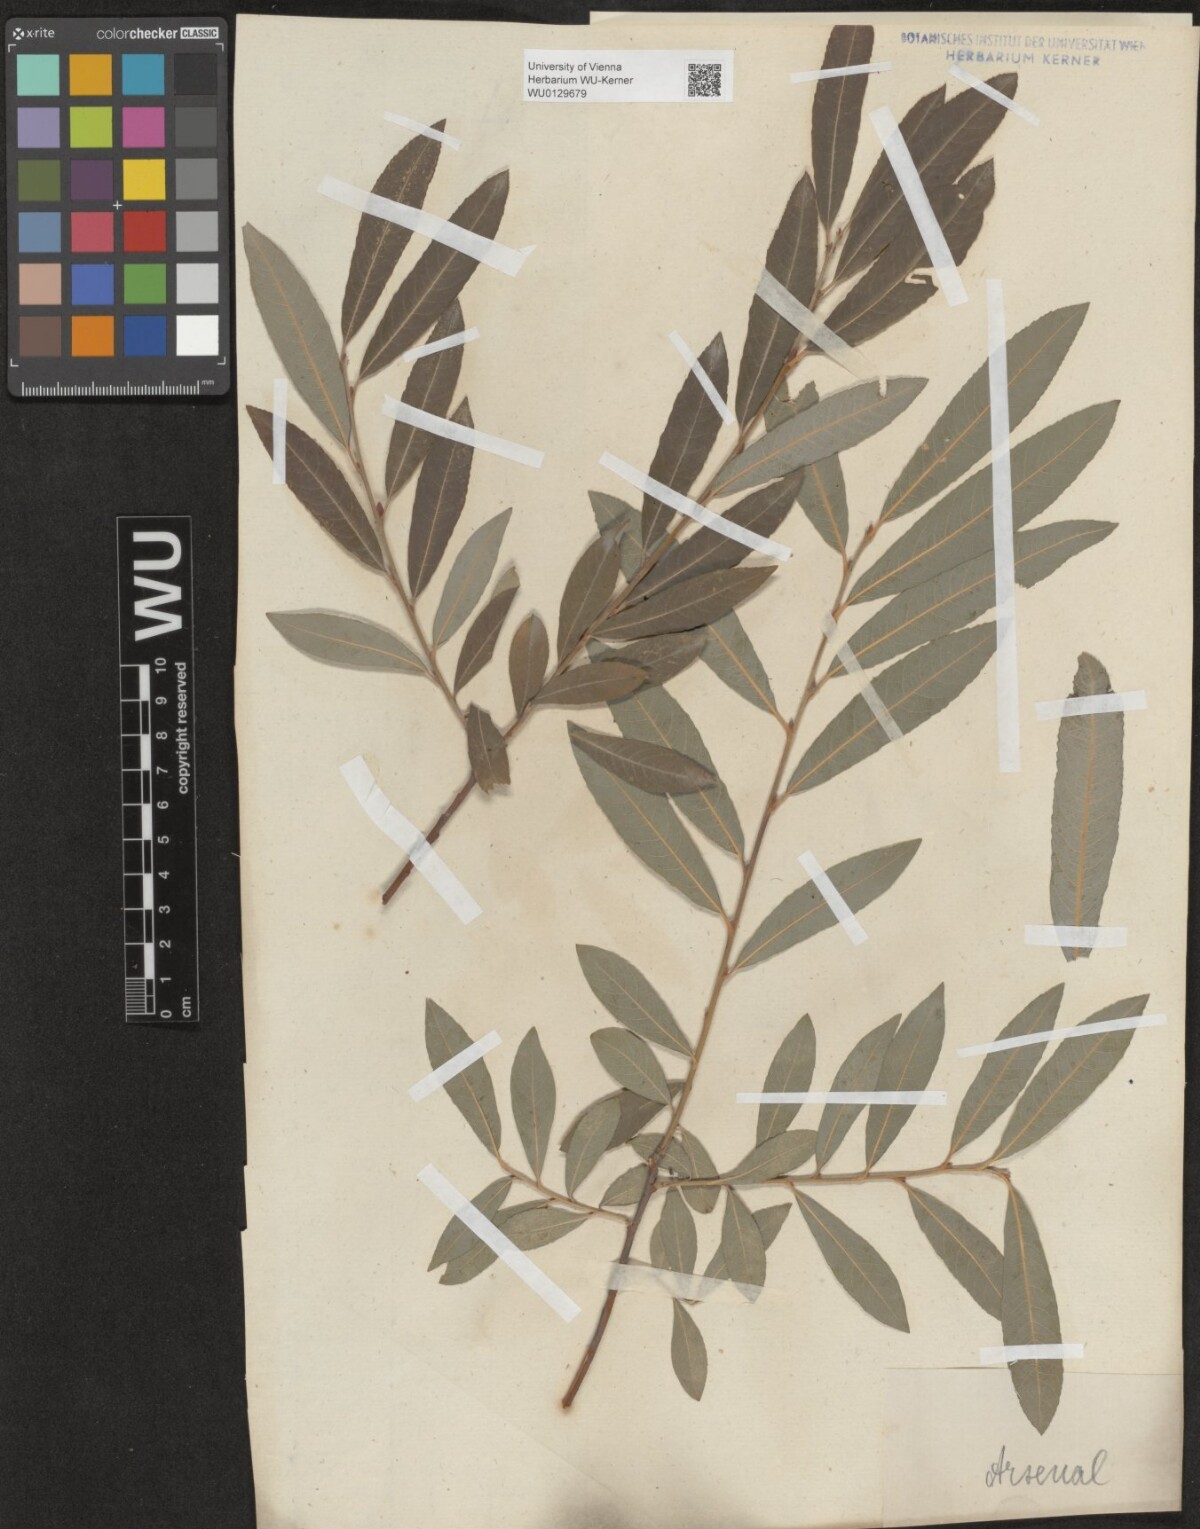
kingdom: Plantae
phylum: Tracheophyta
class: Magnoliopsida
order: Malpighiales
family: Salicaceae
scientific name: Salicaceae
